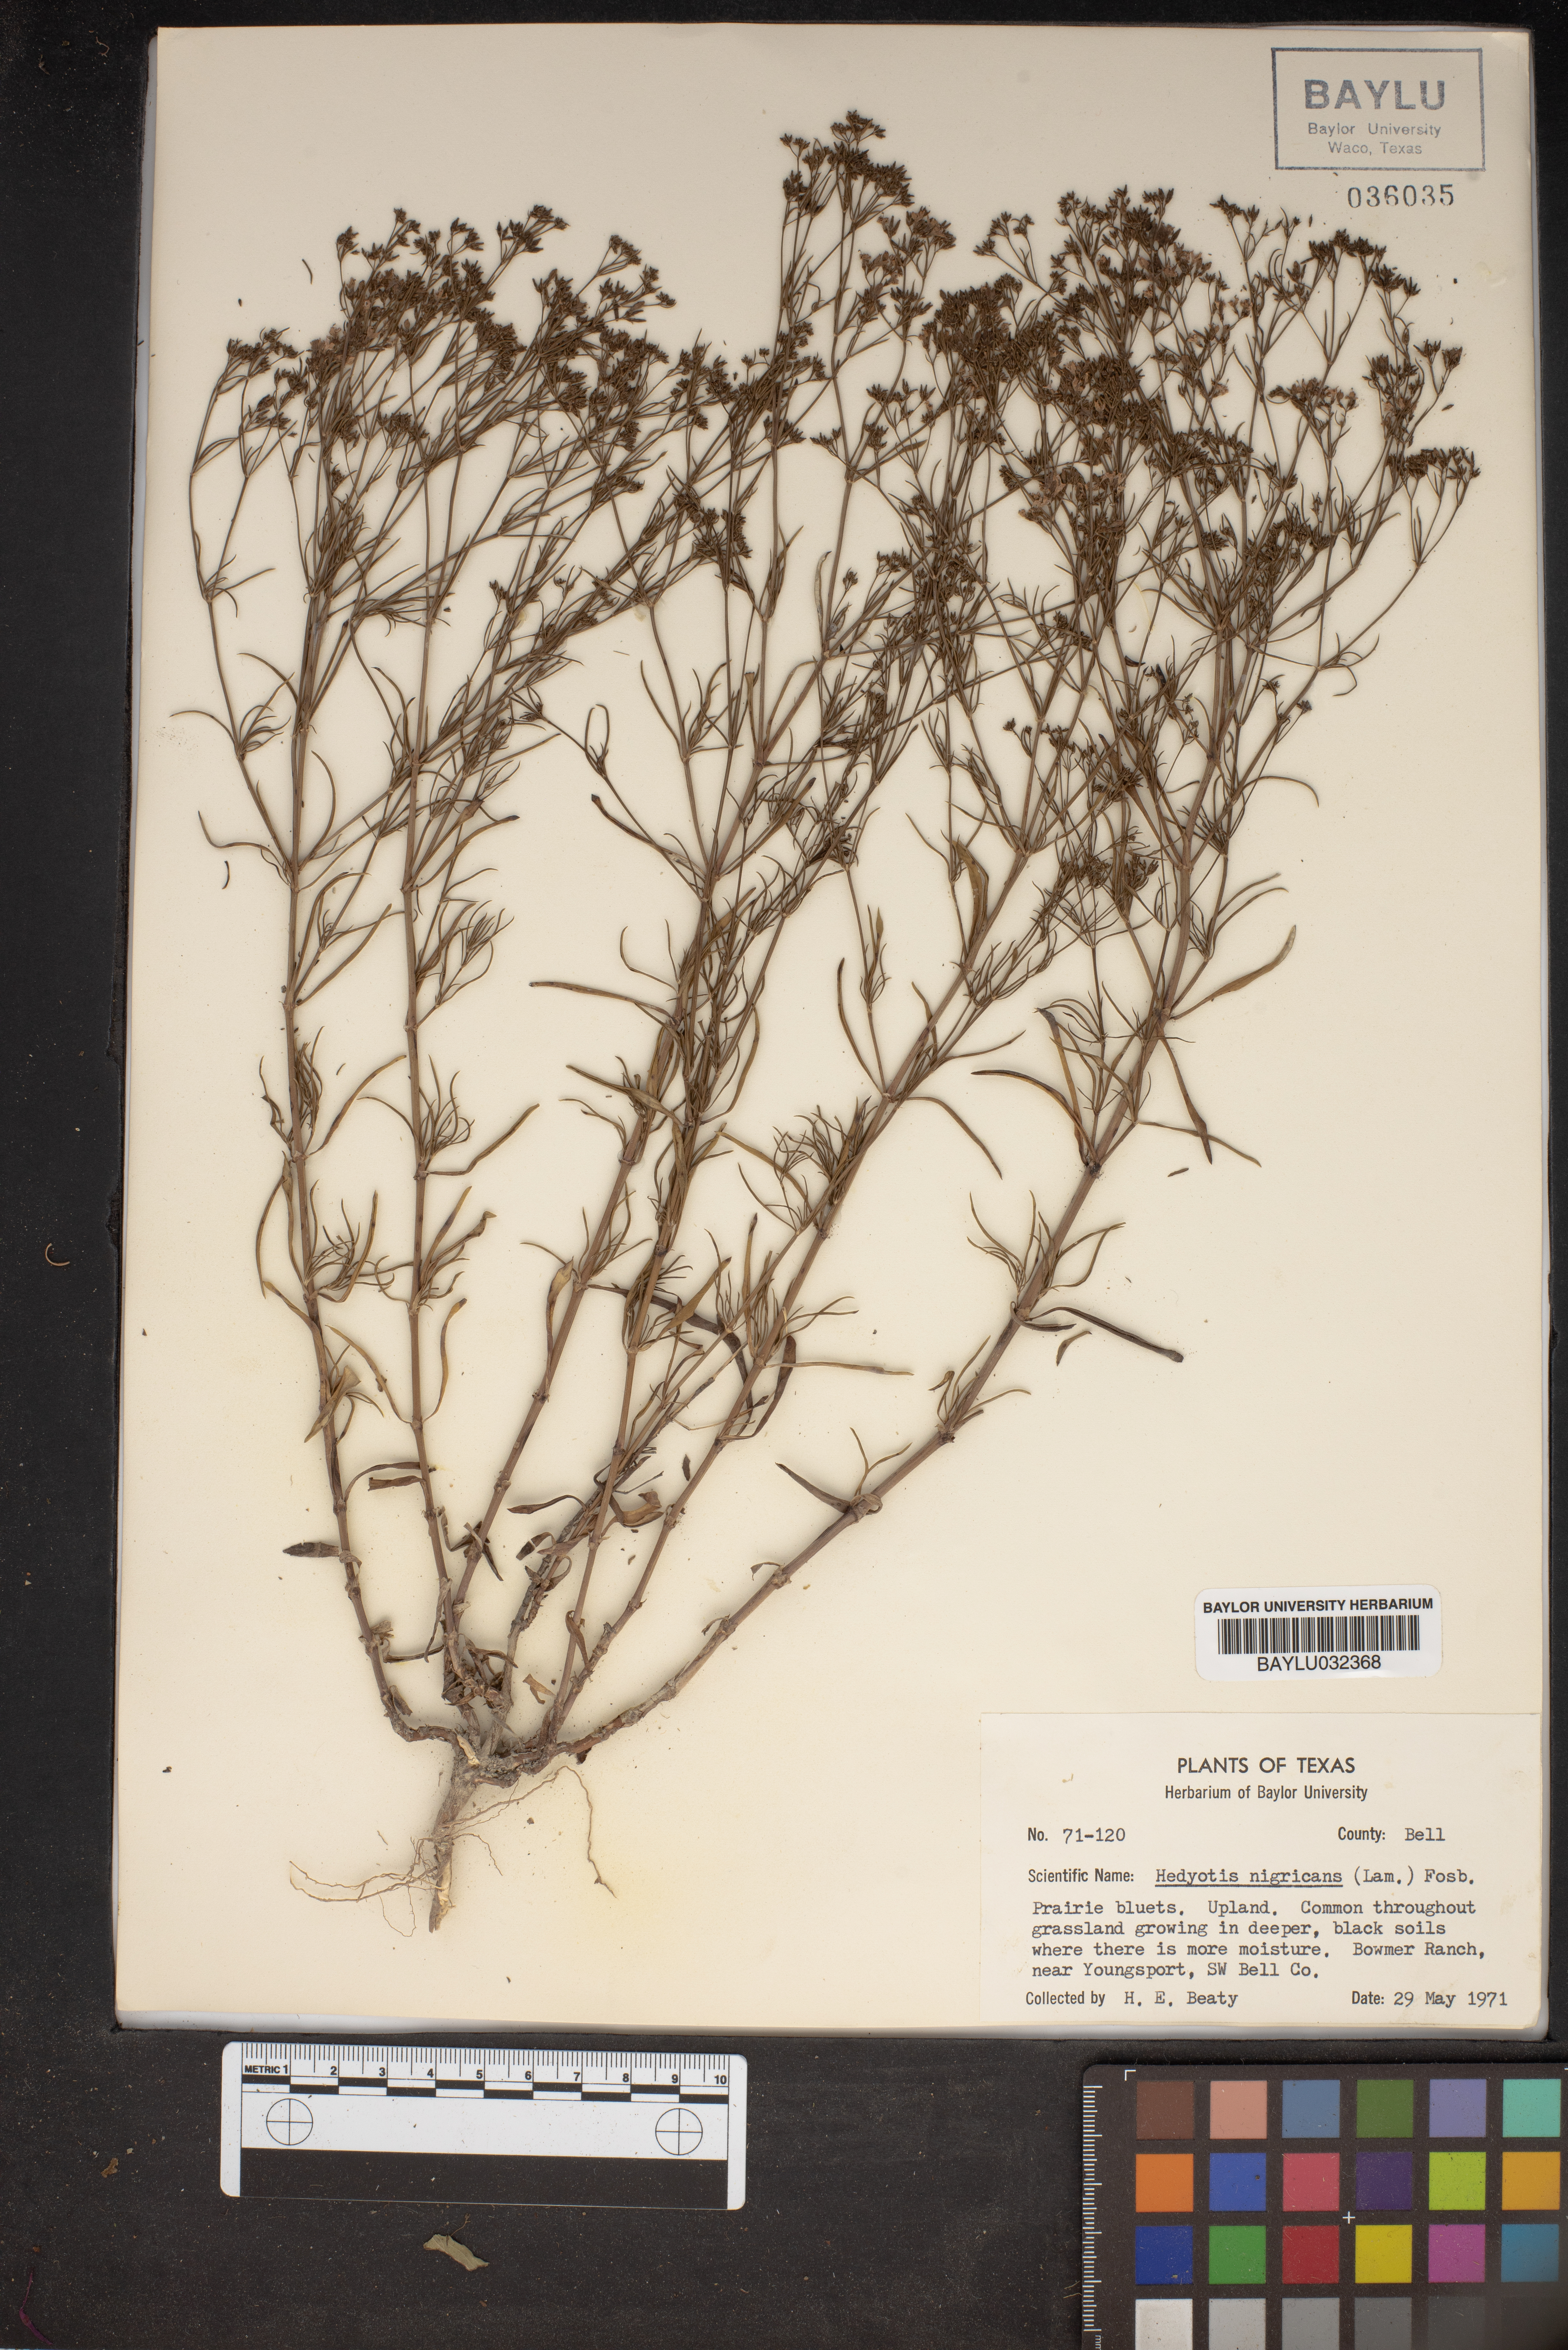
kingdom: Plantae
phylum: Tracheophyta
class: Magnoliopsida
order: Gentianales
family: Rubiaceae
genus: Stenaria
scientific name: Stenaria nigricans
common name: Diamondflowers
